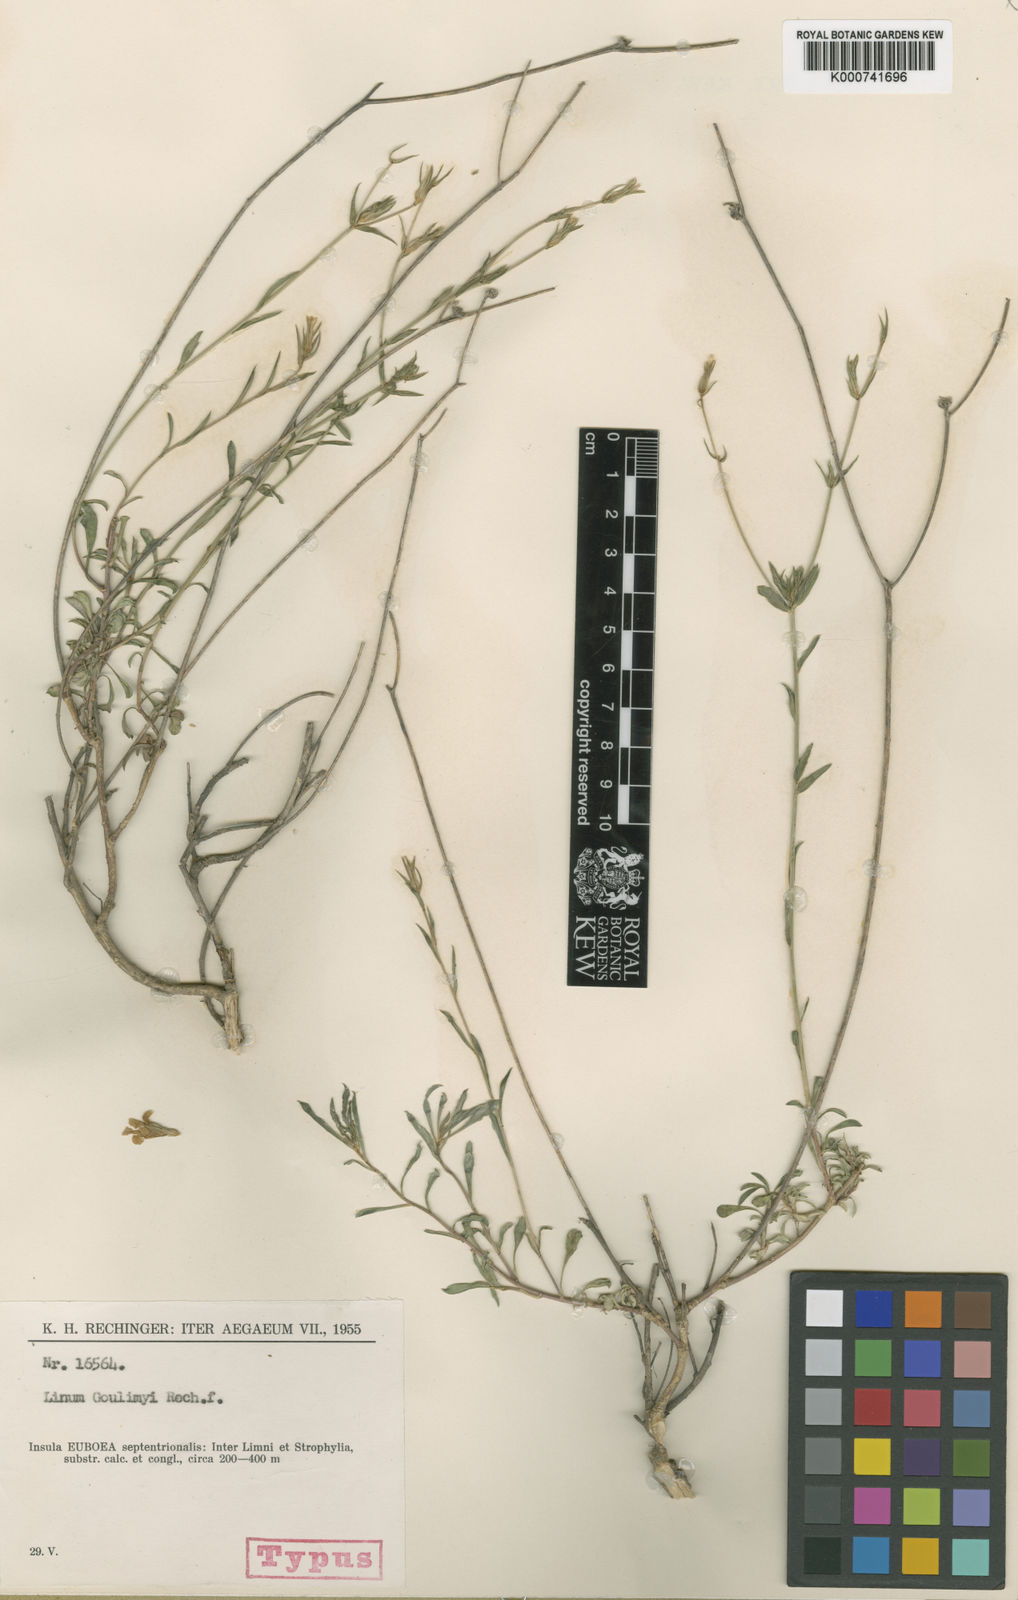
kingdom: Plantae
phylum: Tracheophyta
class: Magnoliopsida
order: Malpighiales
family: Linaceae
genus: Linum
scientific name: Linum goulimyi
